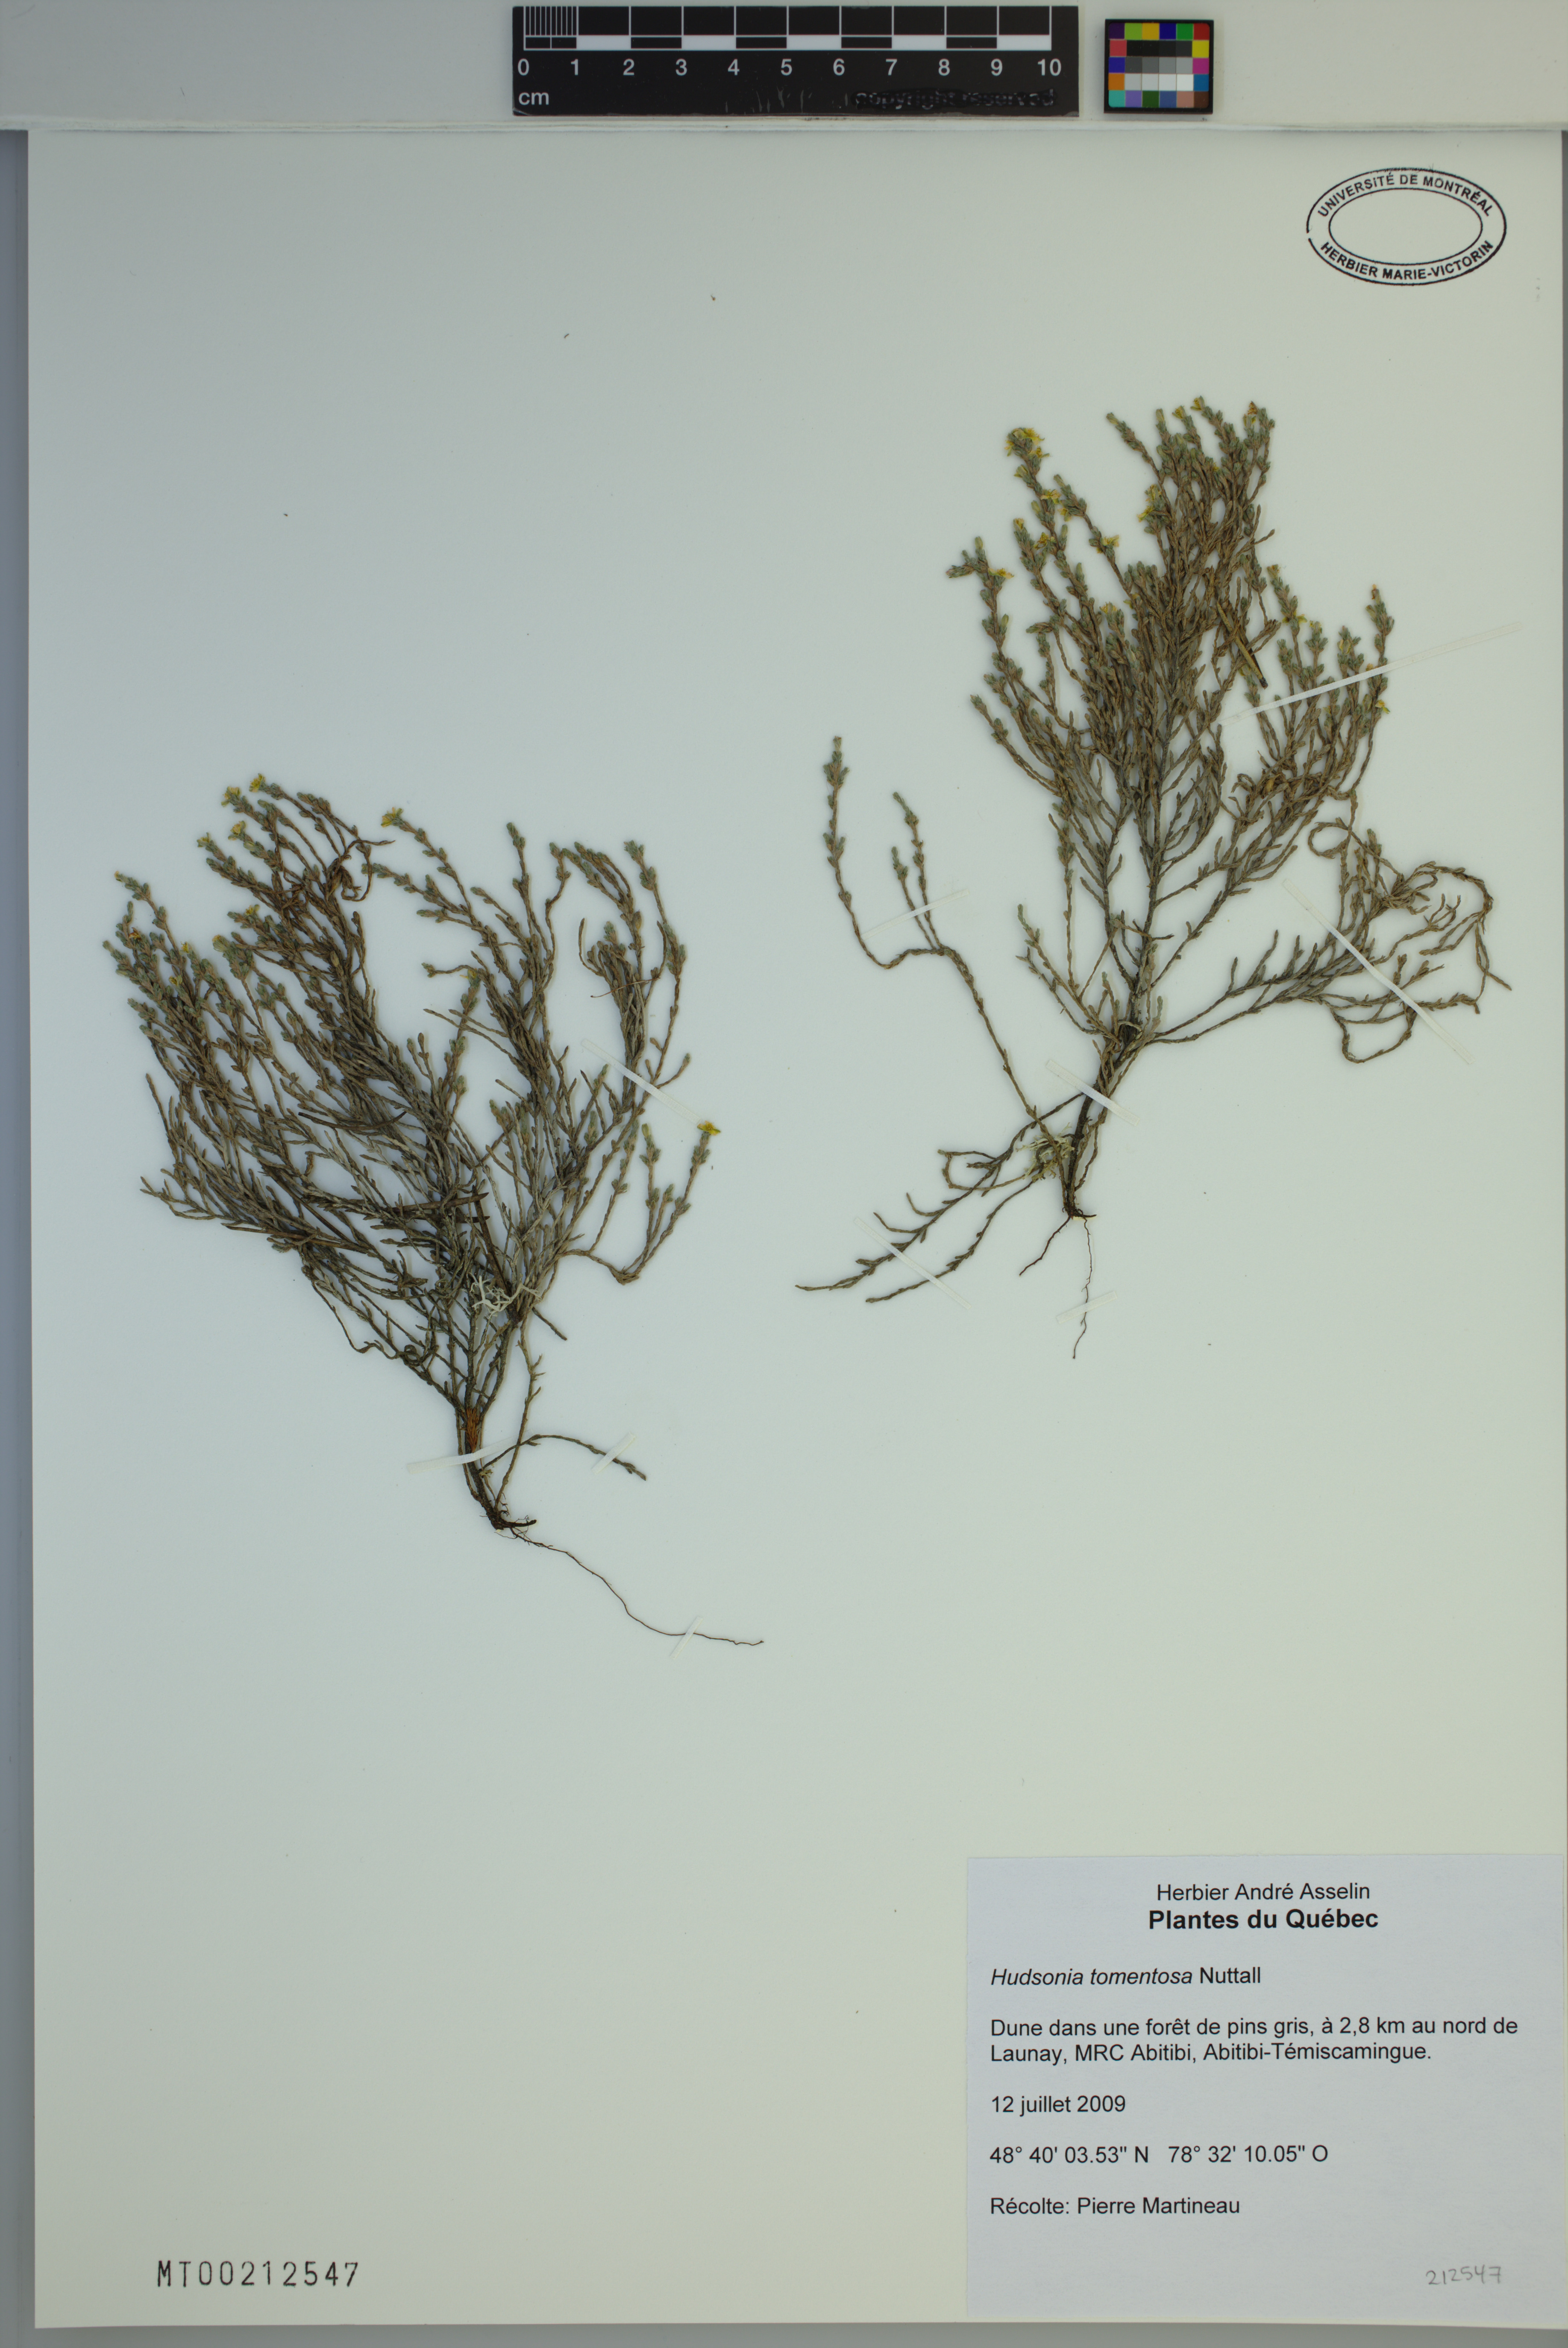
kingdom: Plantae
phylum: Tracheophyta
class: Magnoliopsida
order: Malvales
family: Cistaceae
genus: Hudsonia
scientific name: Hudsonia tomentosa
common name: Beach-heath
